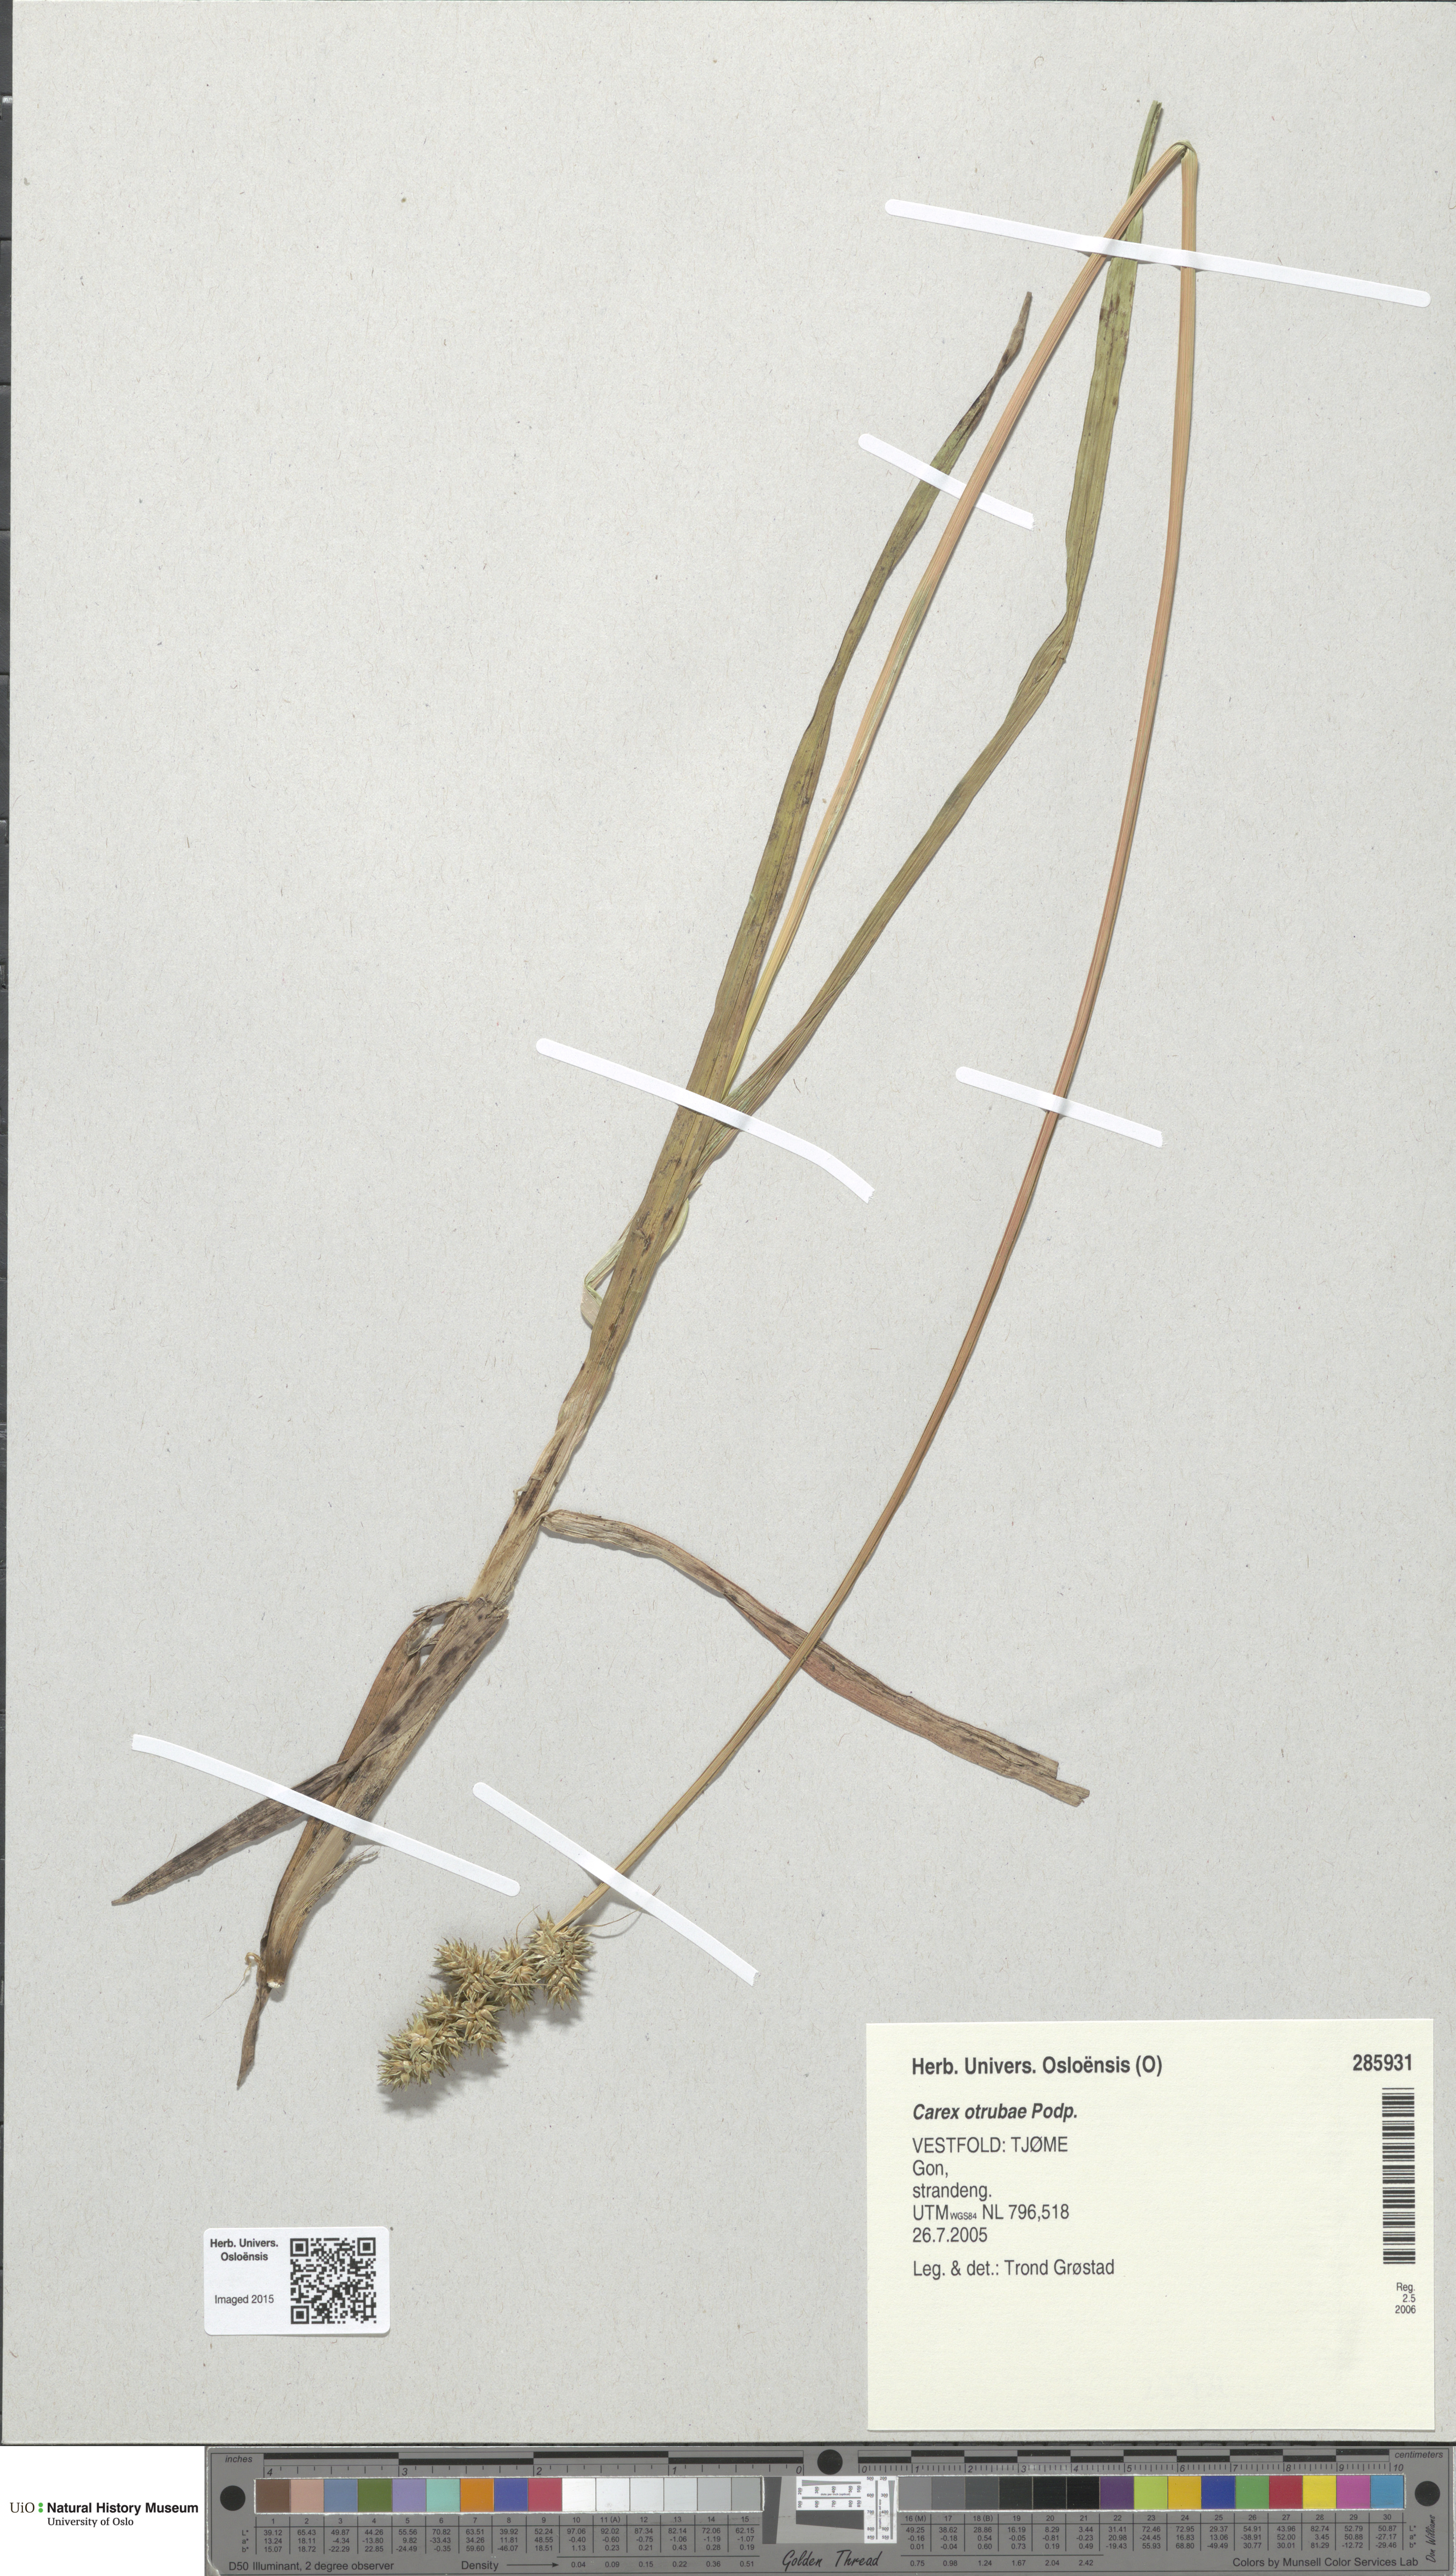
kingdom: Plantae
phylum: Tracheophyta
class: Liliopsida
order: Poales
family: Cyperaceae
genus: Carex
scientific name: Carex otrubae
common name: False fox-sedge
